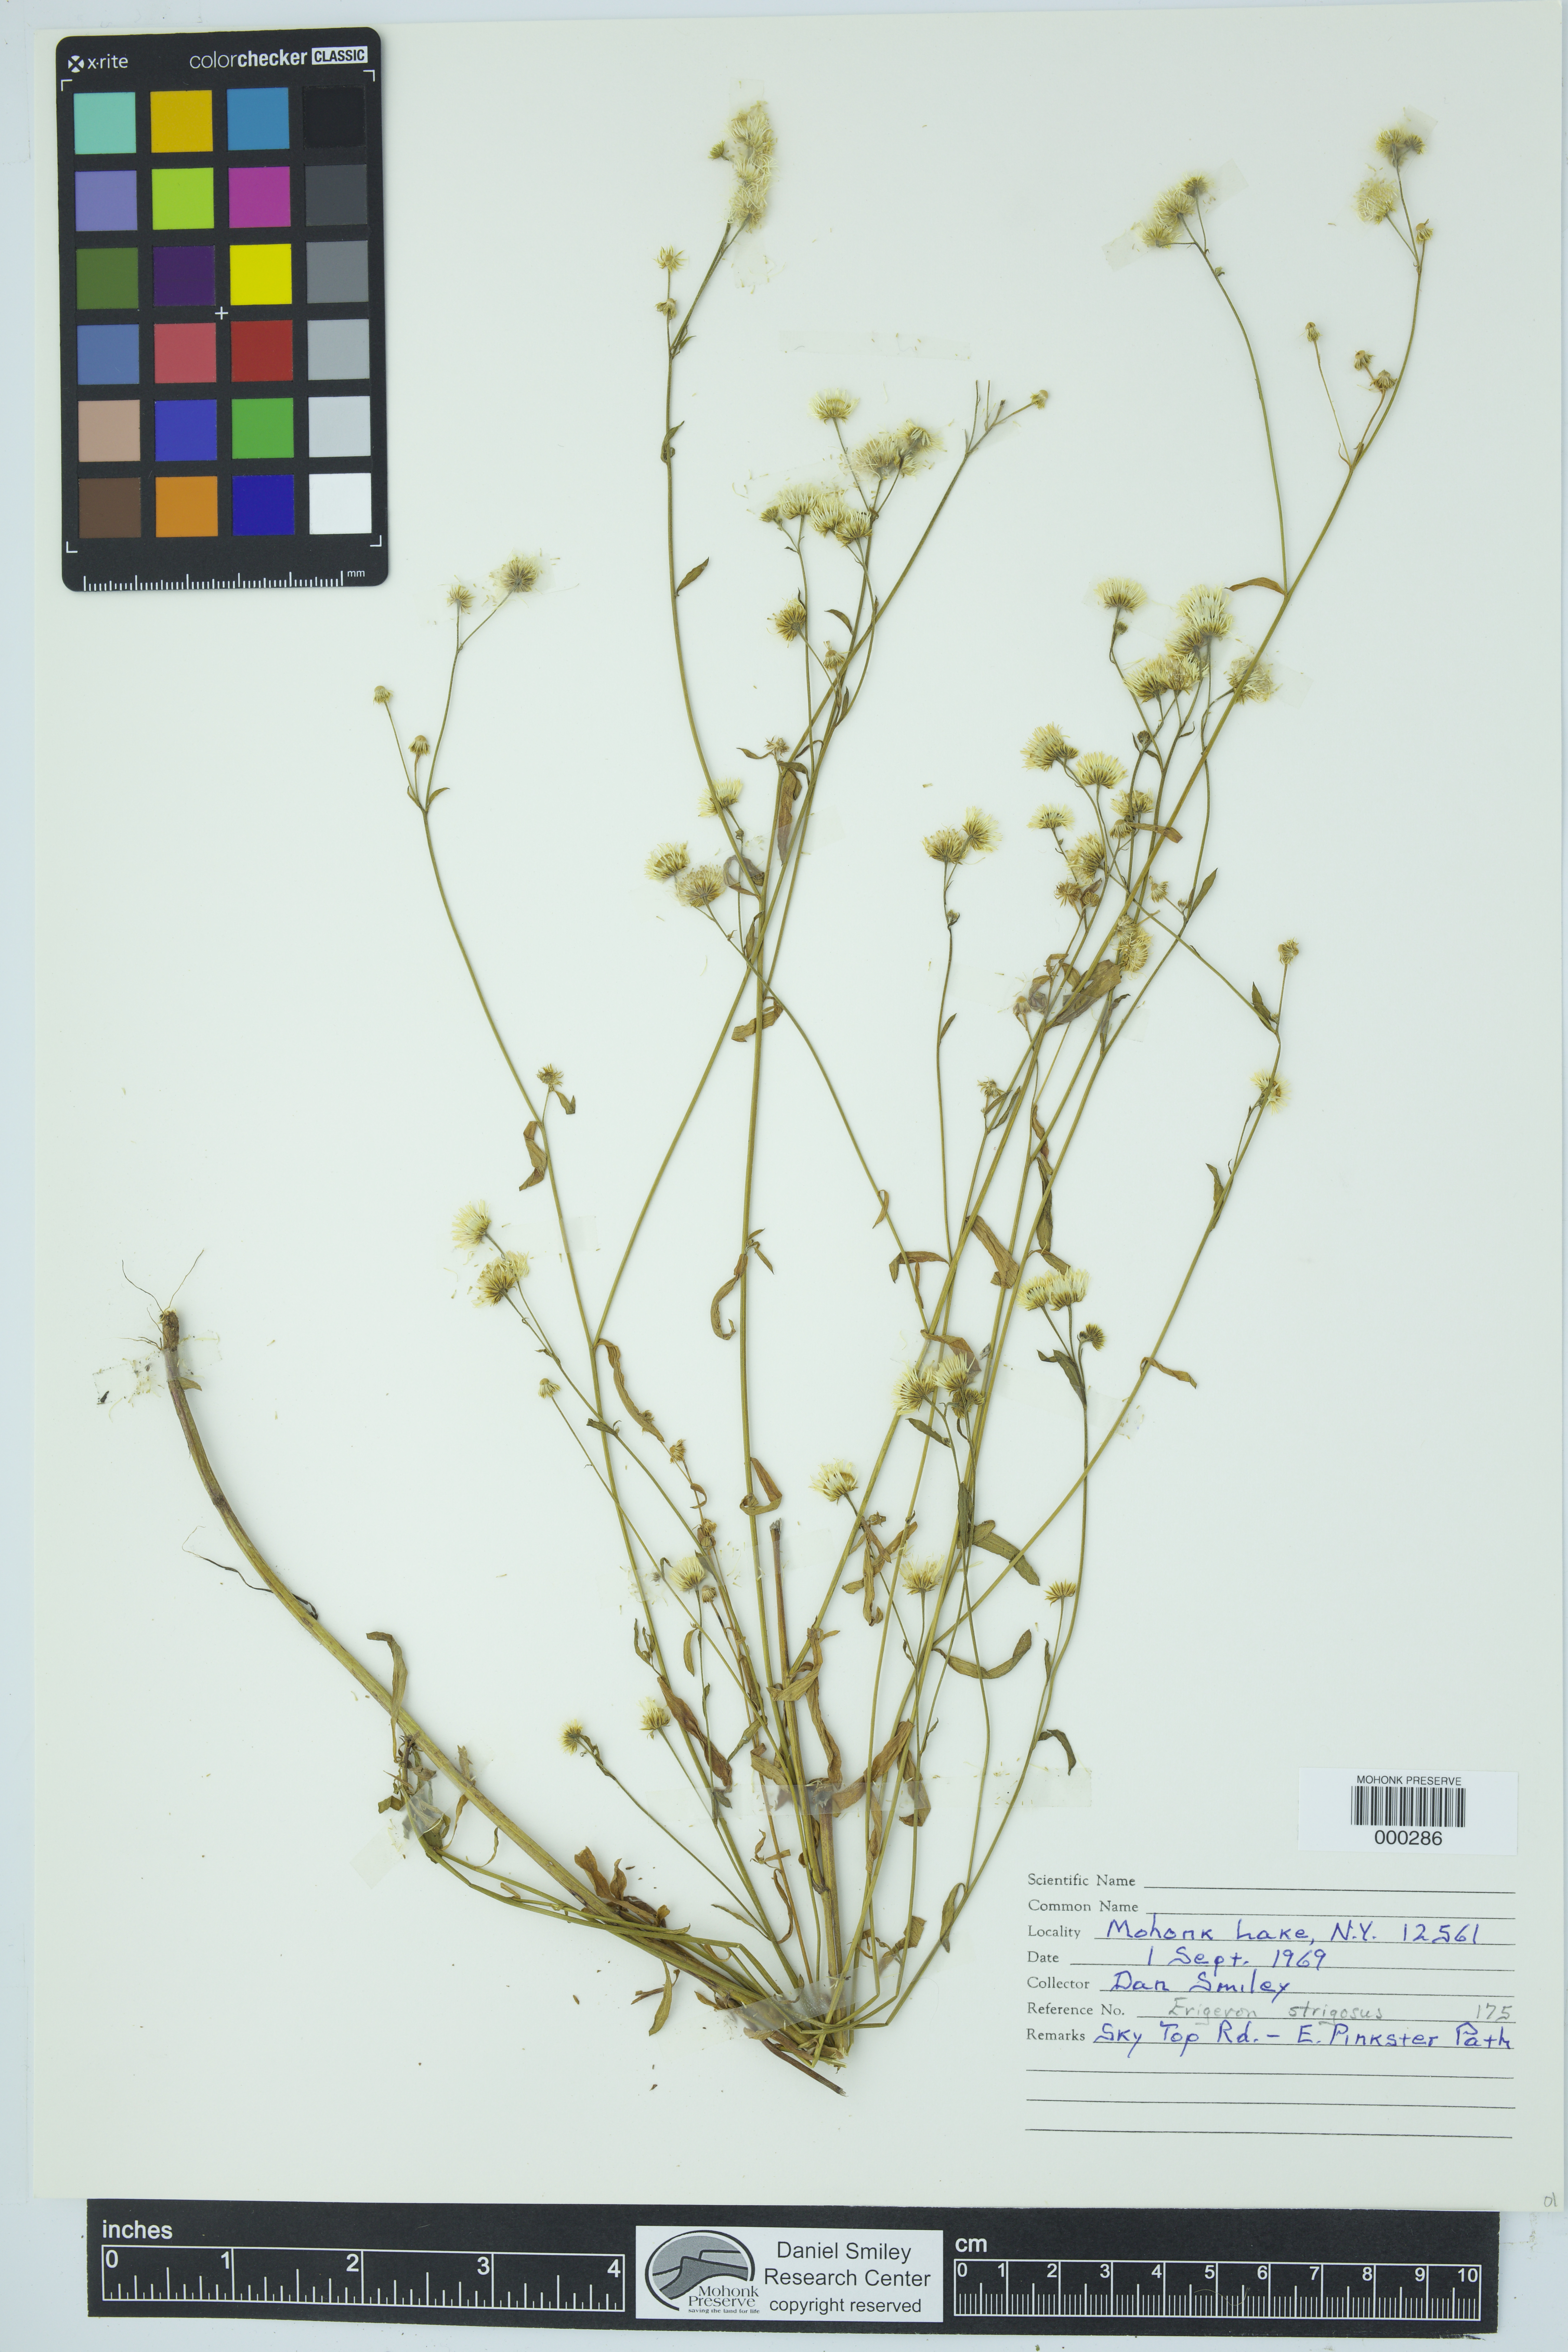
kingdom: Plantae
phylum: Tracheophyta
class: Magnoliopsida
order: Asterales
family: Asteraceae
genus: Erigeron
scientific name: Erigeron strigosus
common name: Common eastern fleabane
